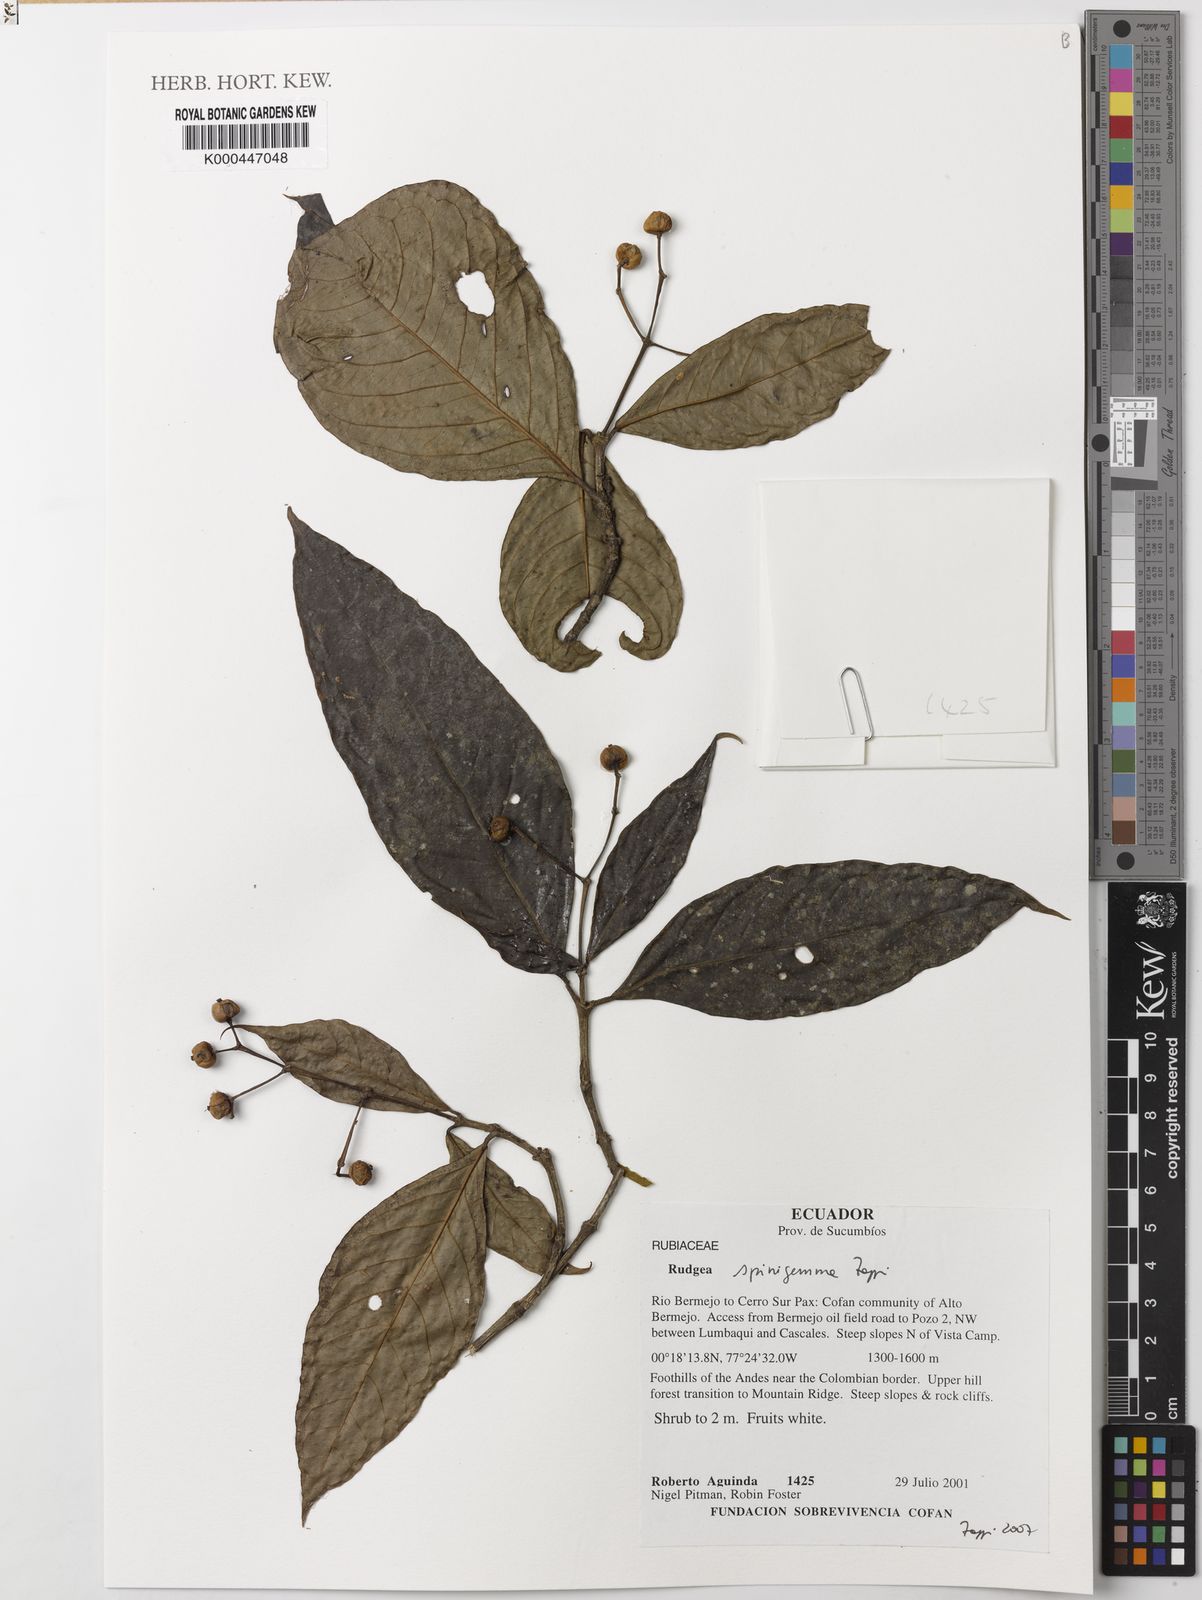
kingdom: Plantae
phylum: Tracheophyta
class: Magnoliopsida
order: Gentianales
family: Rubiaceae
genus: Rudgea
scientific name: Rudgea spinigemma
